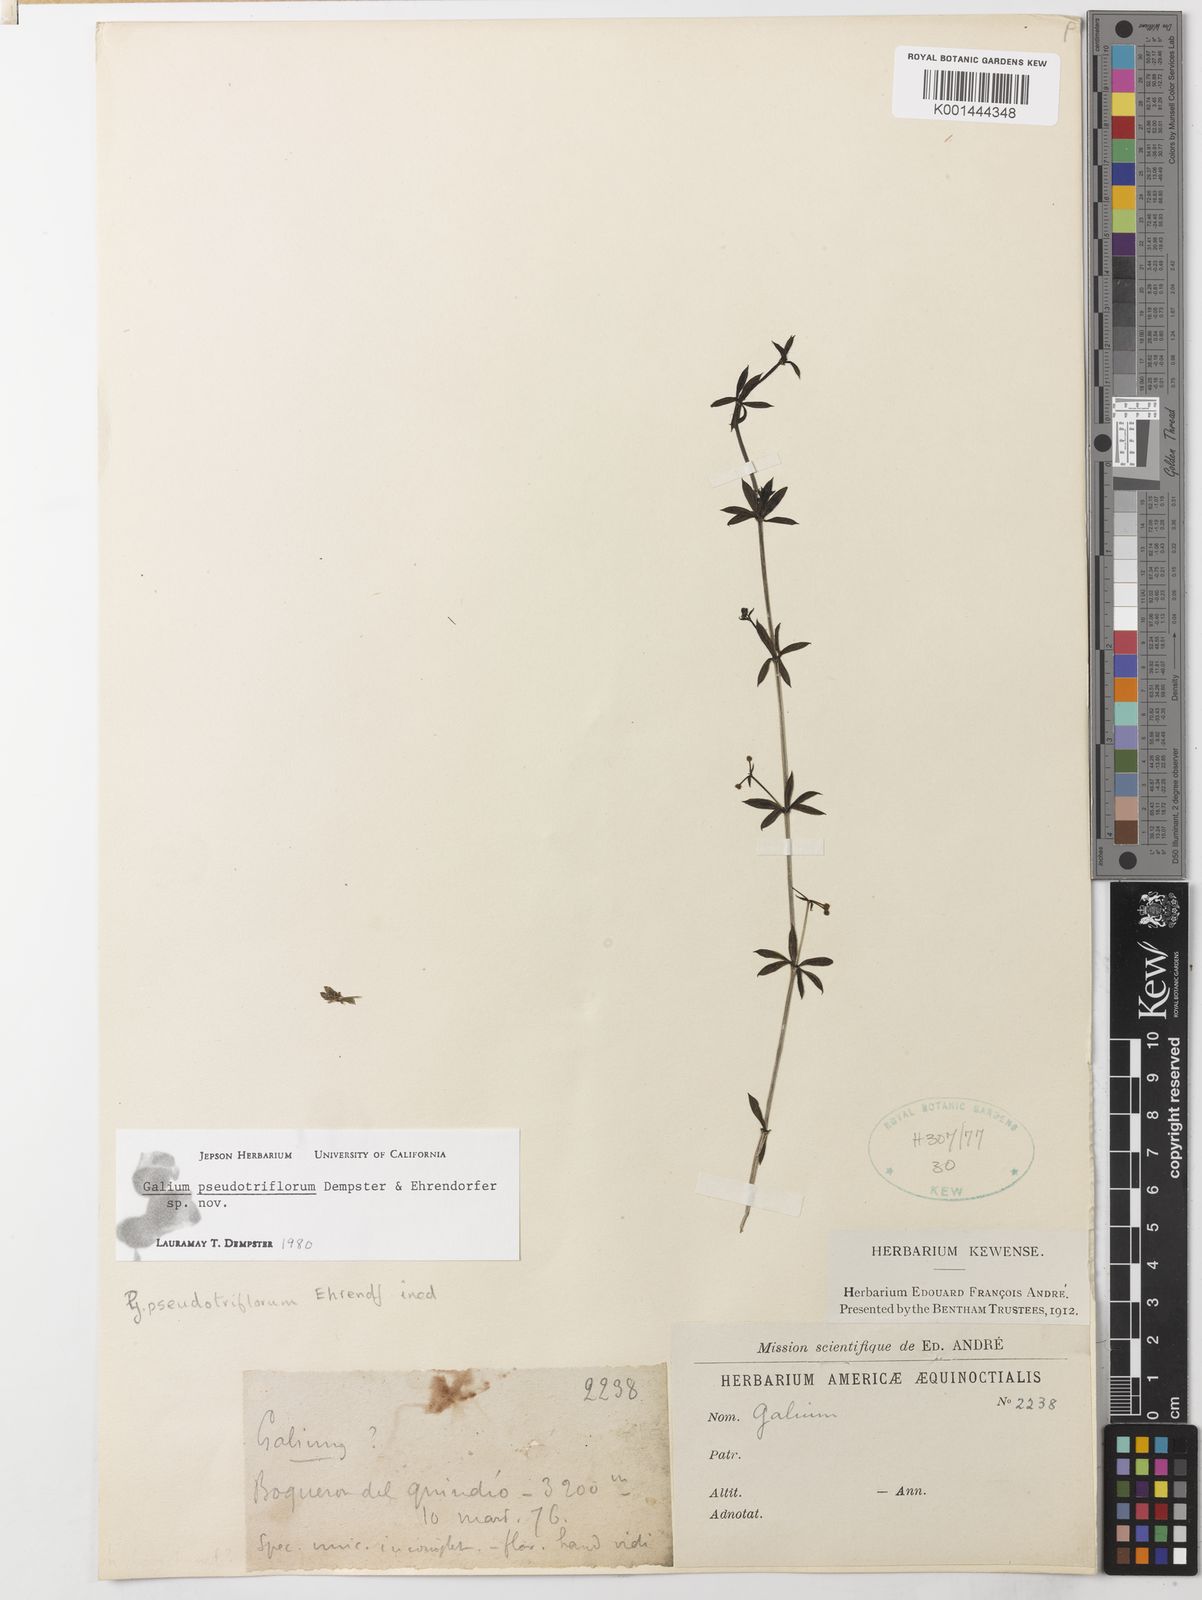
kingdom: Plantae
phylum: Tracheophyta
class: Magnoliopsida
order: Gentianales
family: Rubiaceae
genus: Galium
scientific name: Galium pseudotriflorum
